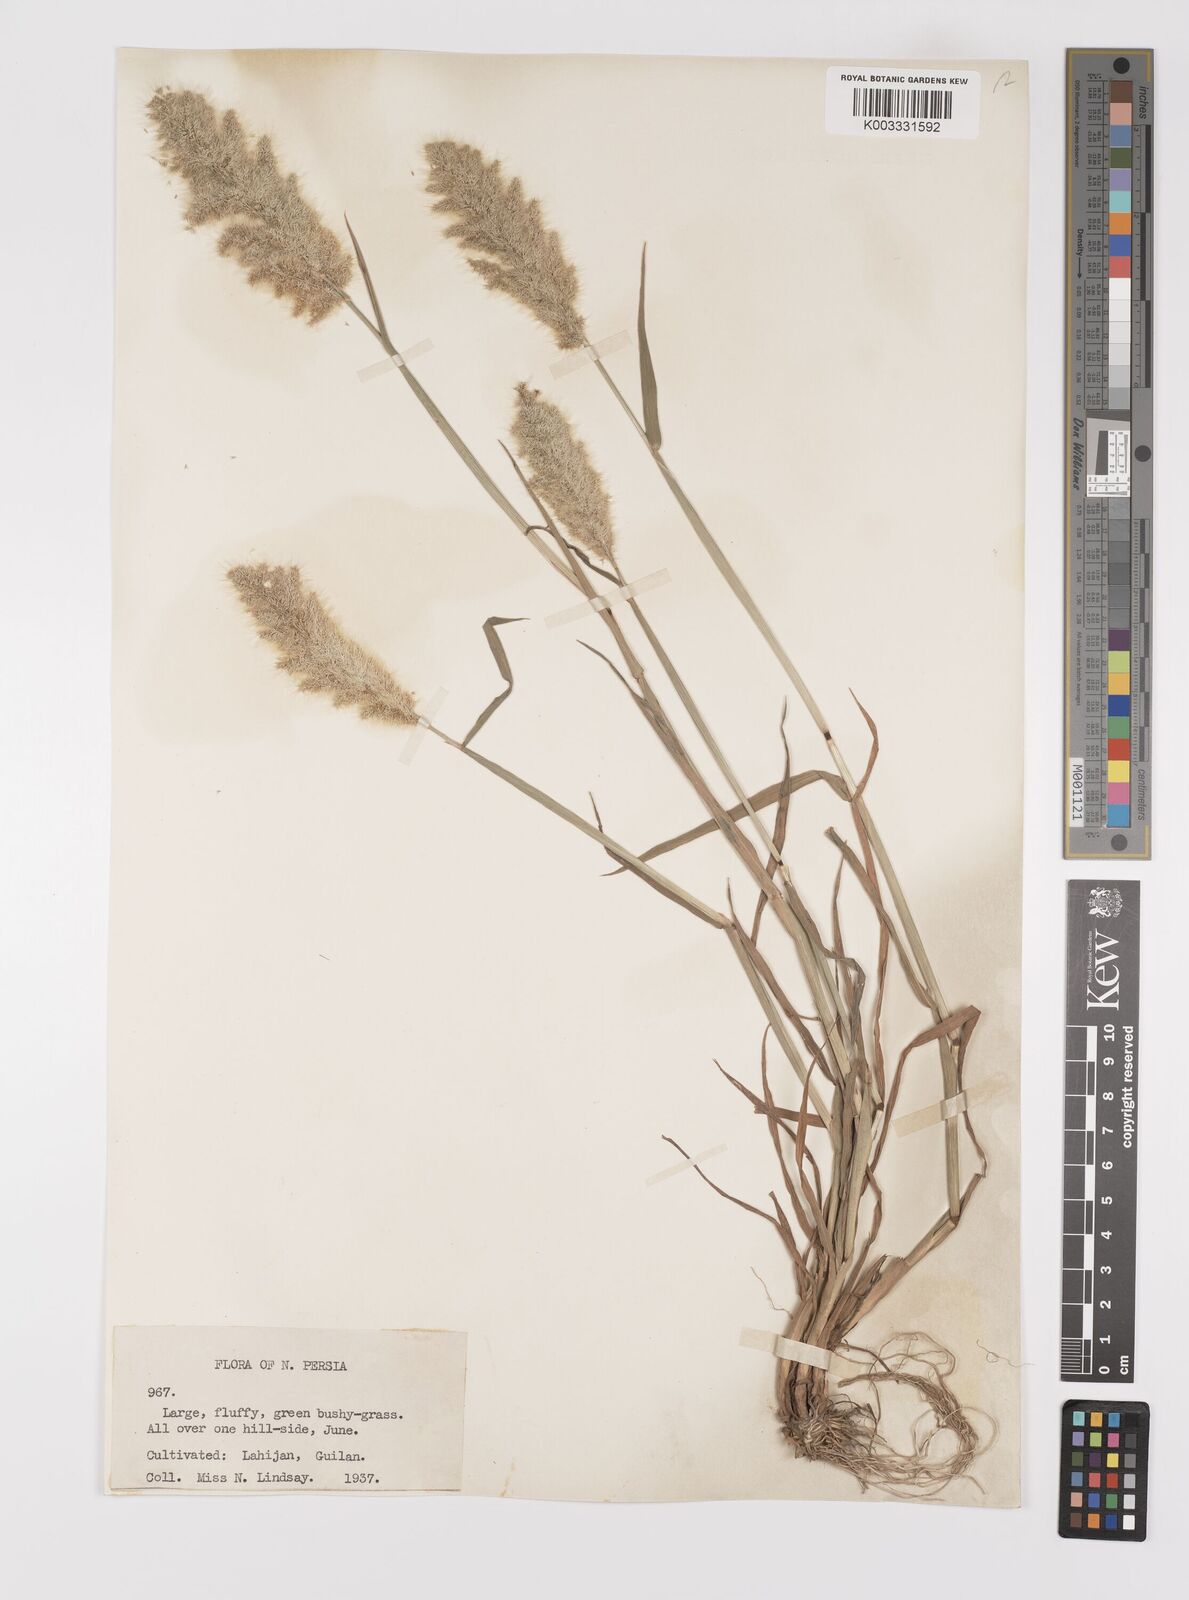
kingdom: Plantae
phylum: Tracheophyta
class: Liliopsida
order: Poales
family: Poaceae
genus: Polypogon
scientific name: Polypogon monspeliensis
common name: Annual rabbitsfoot grass
